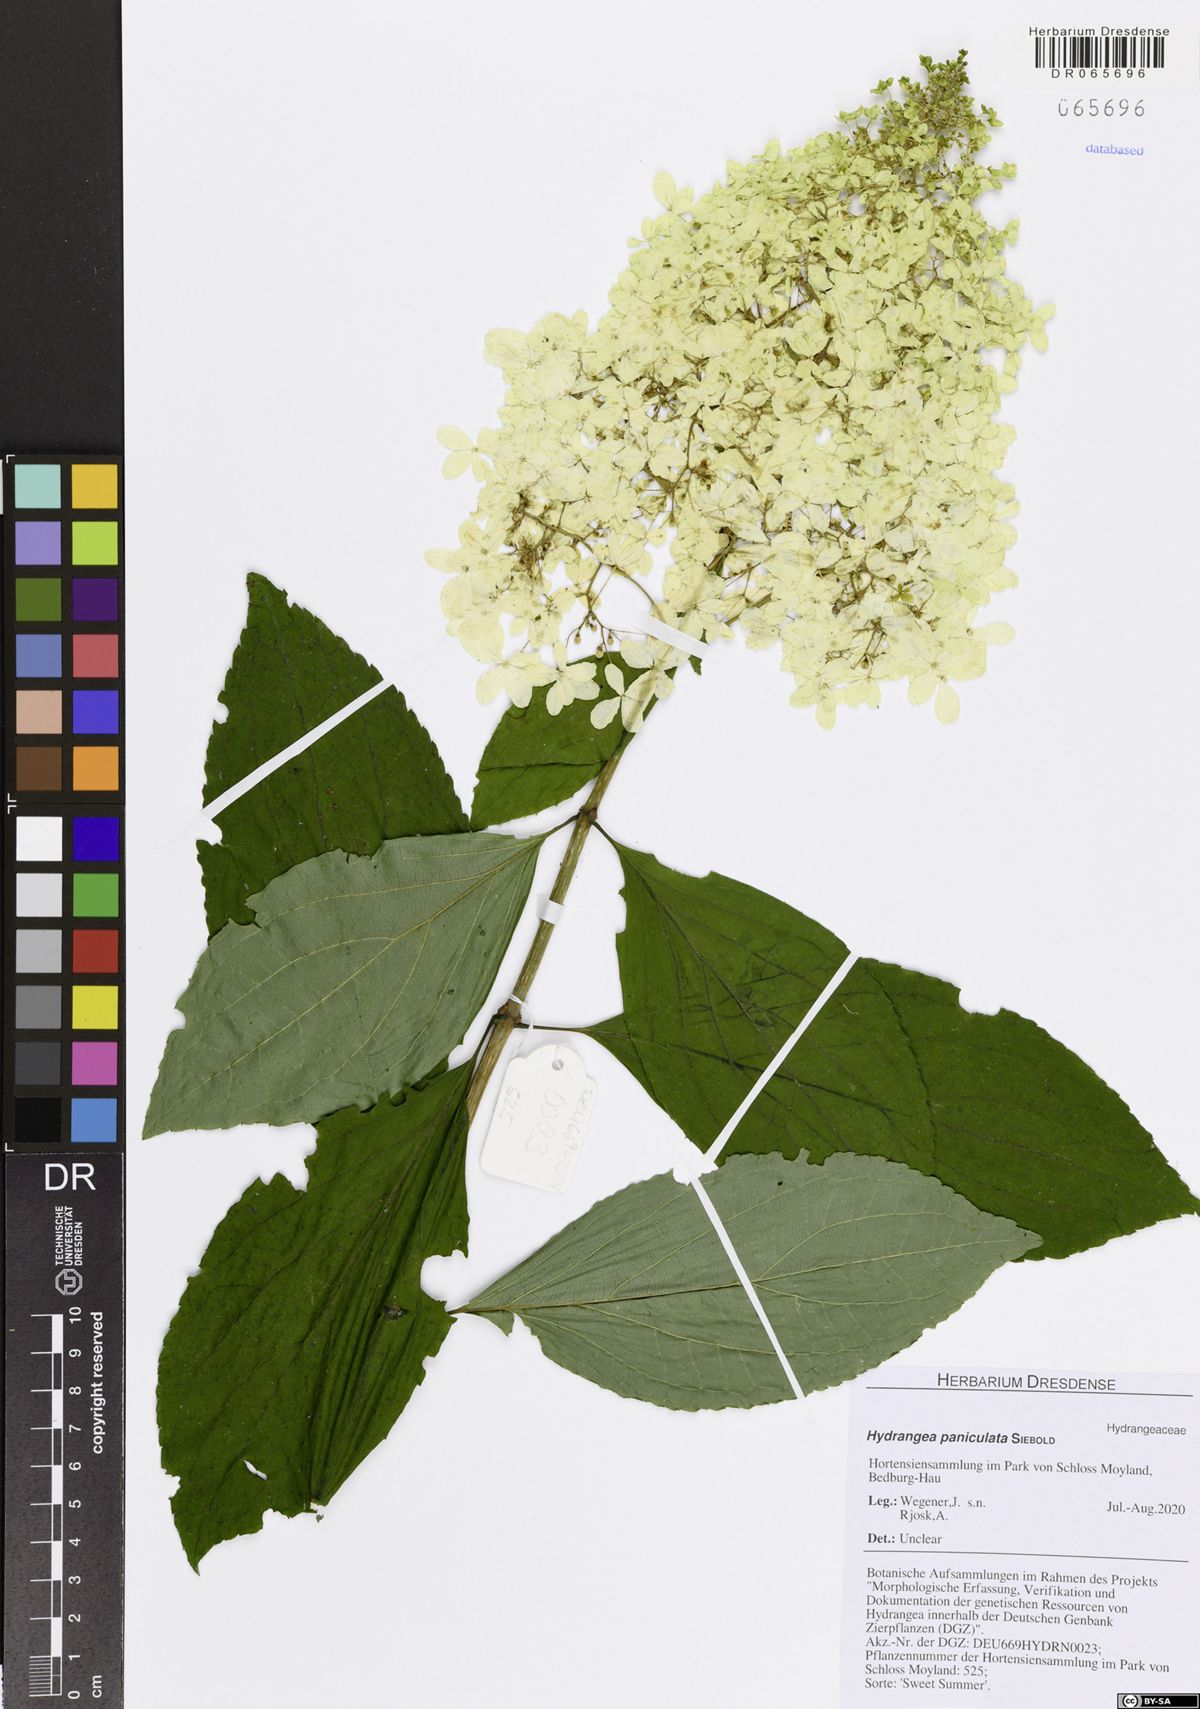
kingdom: Plantae
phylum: Tracheophyta
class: Magnoliopsida
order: Cornales
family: Hydrangeaceae
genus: Hydrangea
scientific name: Hydrangea paniculata
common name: Panicled hydrangea
